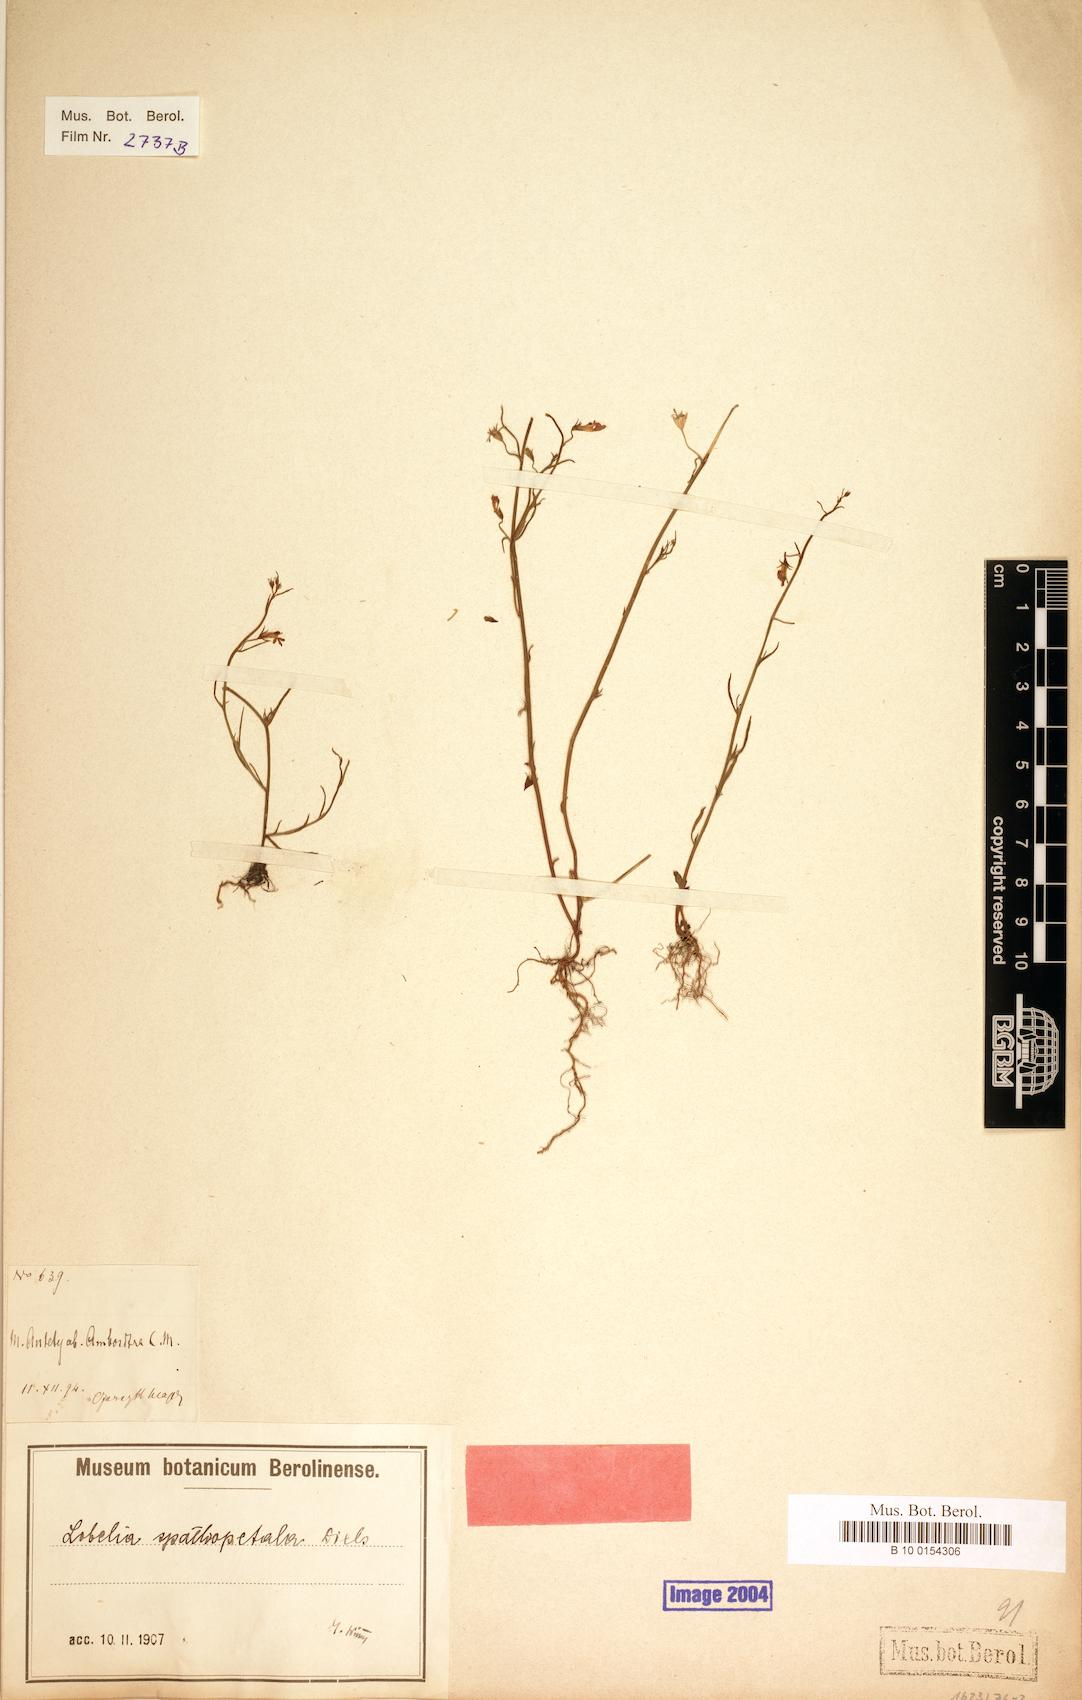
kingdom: Plantae
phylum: Tracheophyta
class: Magnoliopsida
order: Asterales
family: Campanulaceae
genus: Lobelia
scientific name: Lobelia spathopetala
